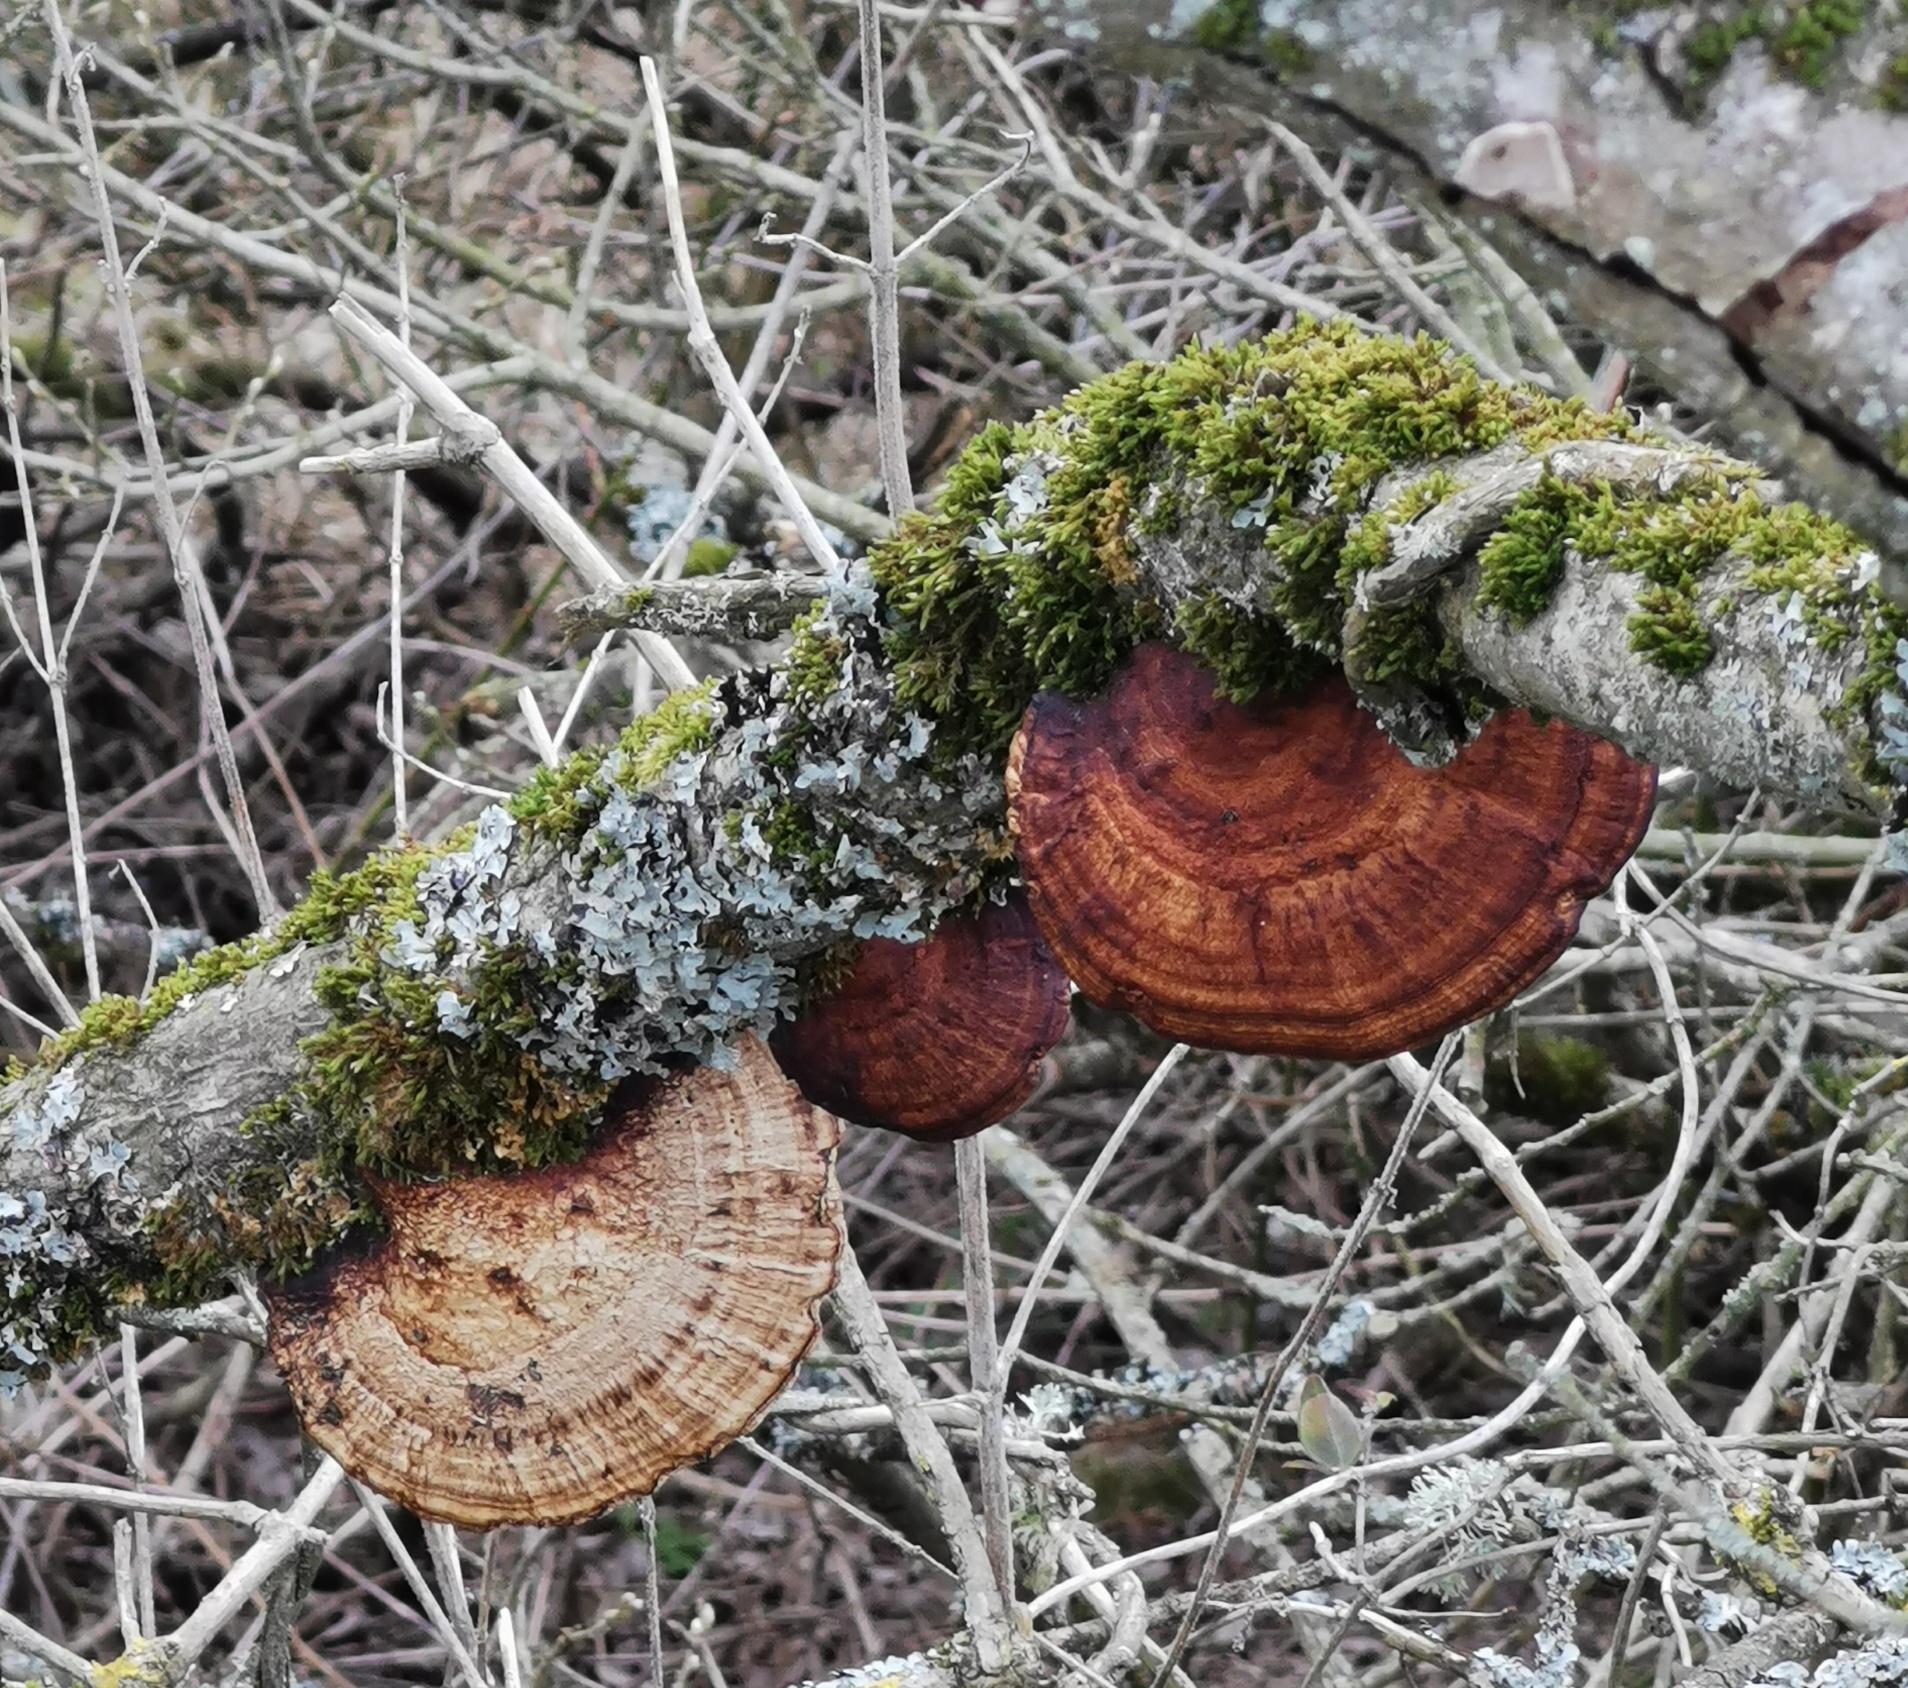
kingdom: Fungi
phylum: Basidiomycota
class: Agaricomycetes
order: Polyporales
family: Polyporaceae
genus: Daedaleopsis
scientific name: Daedaleopsis confragosa
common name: rødmende læderporesvamp
